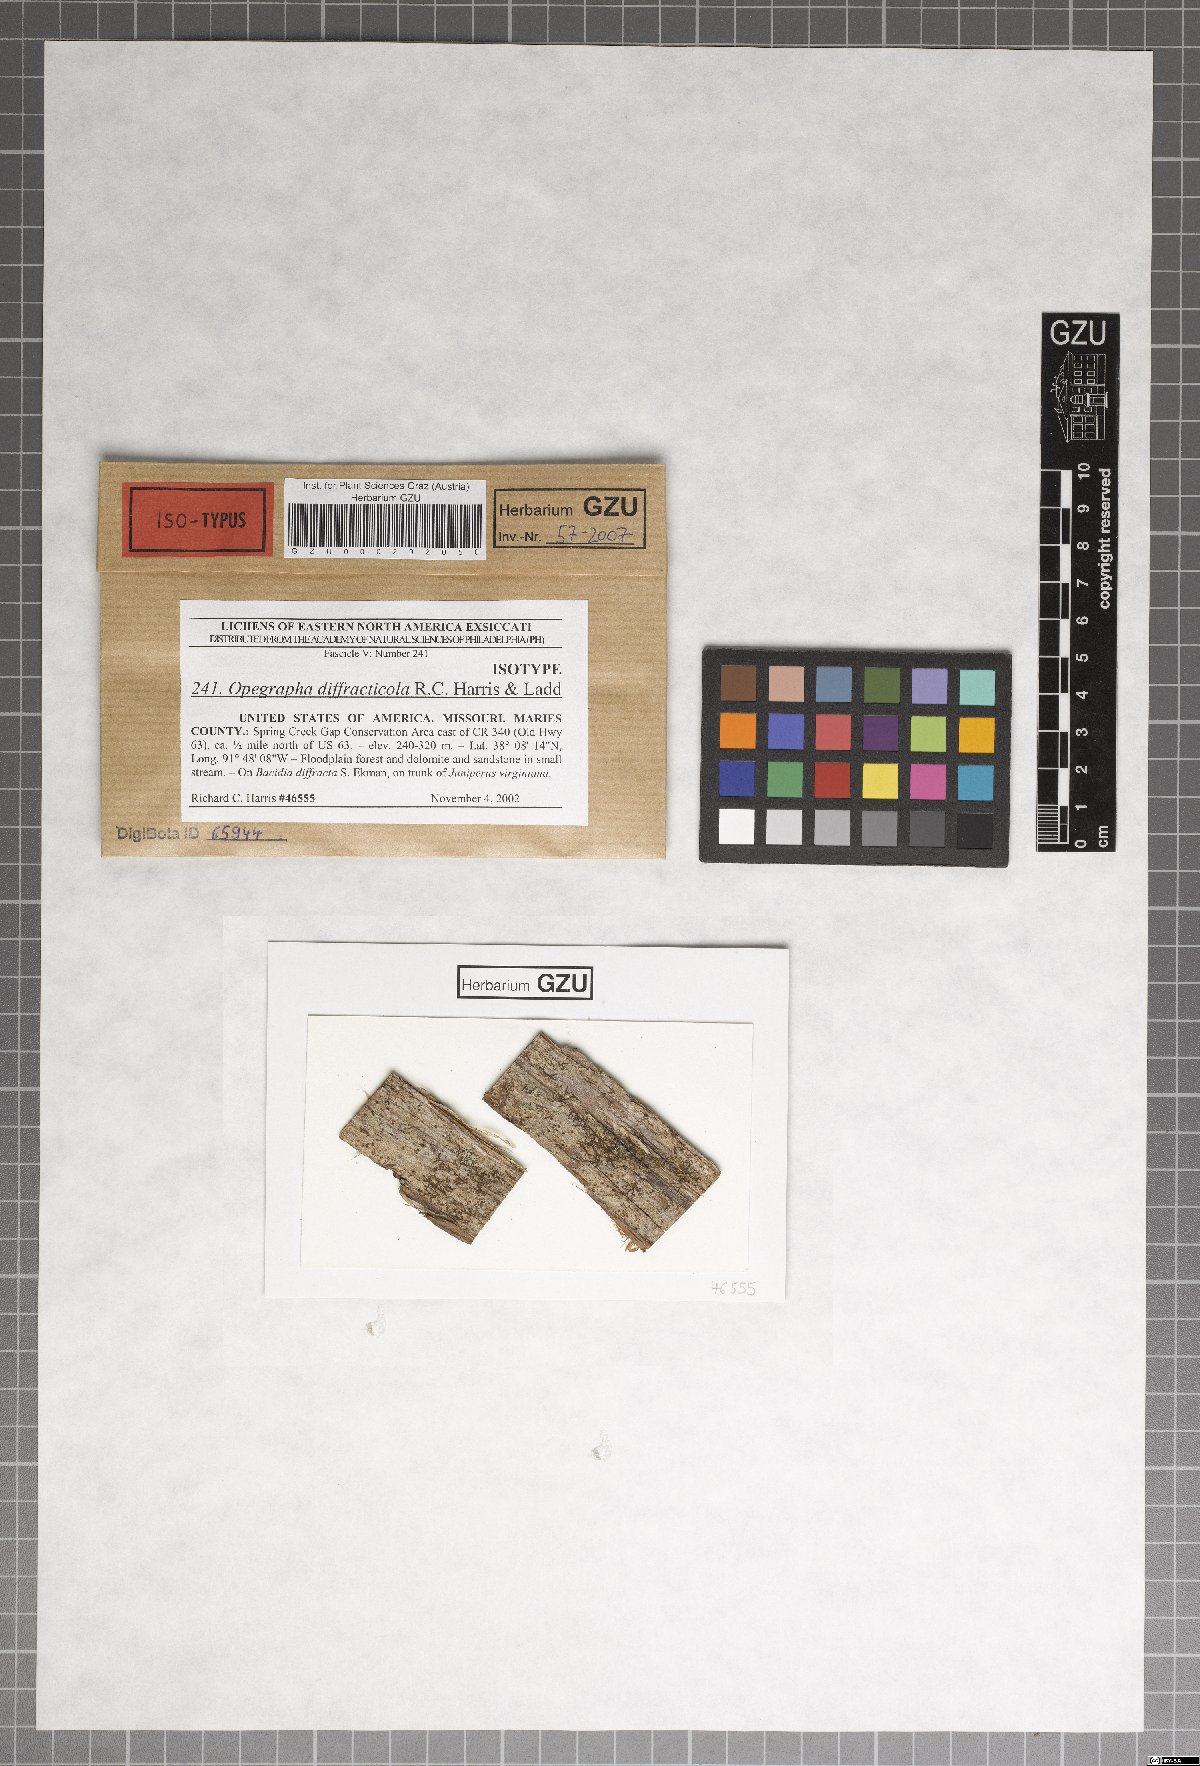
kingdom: Fungi
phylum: Ascomycota
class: Arthoniomycetes
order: Arthoniales
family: Opegraphaceae
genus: Opegrapha
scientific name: Opegrapha diffracticola
